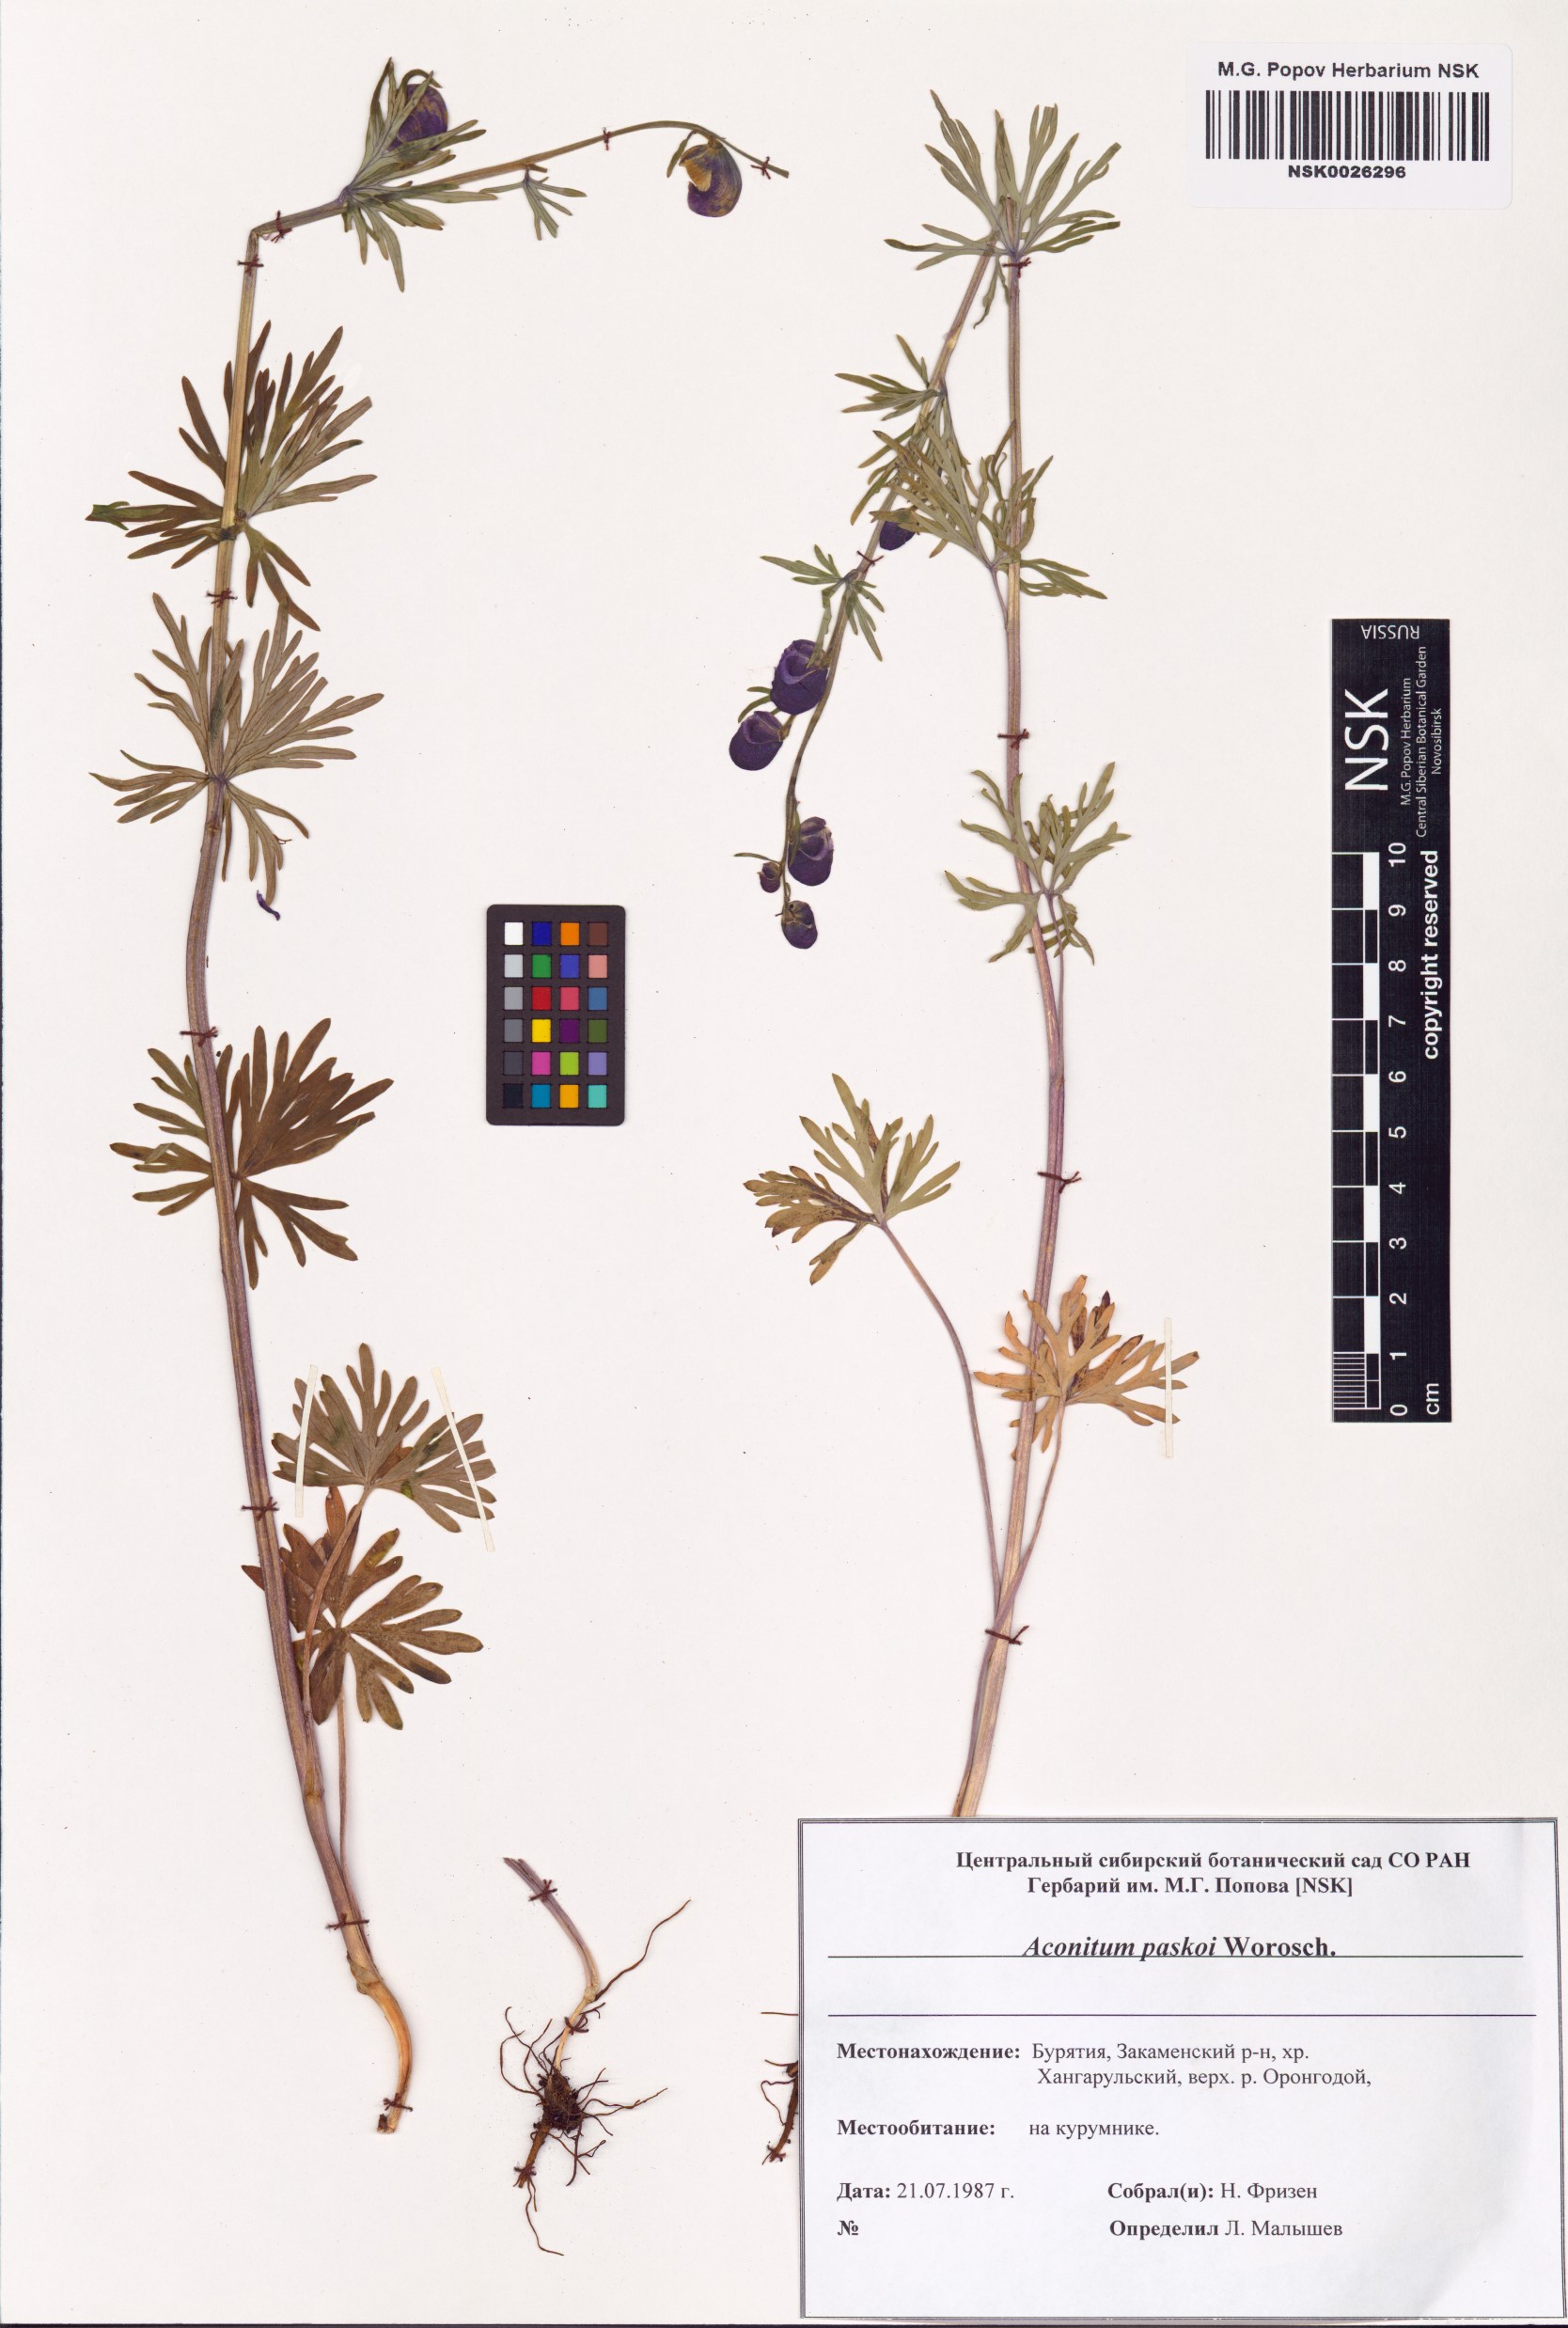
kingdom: Plantae
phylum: Tracheophyta
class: Magnoliopsida
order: Ranunculales
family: Ranunculaceae
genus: Aconitum
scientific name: Aconitum pascoi
